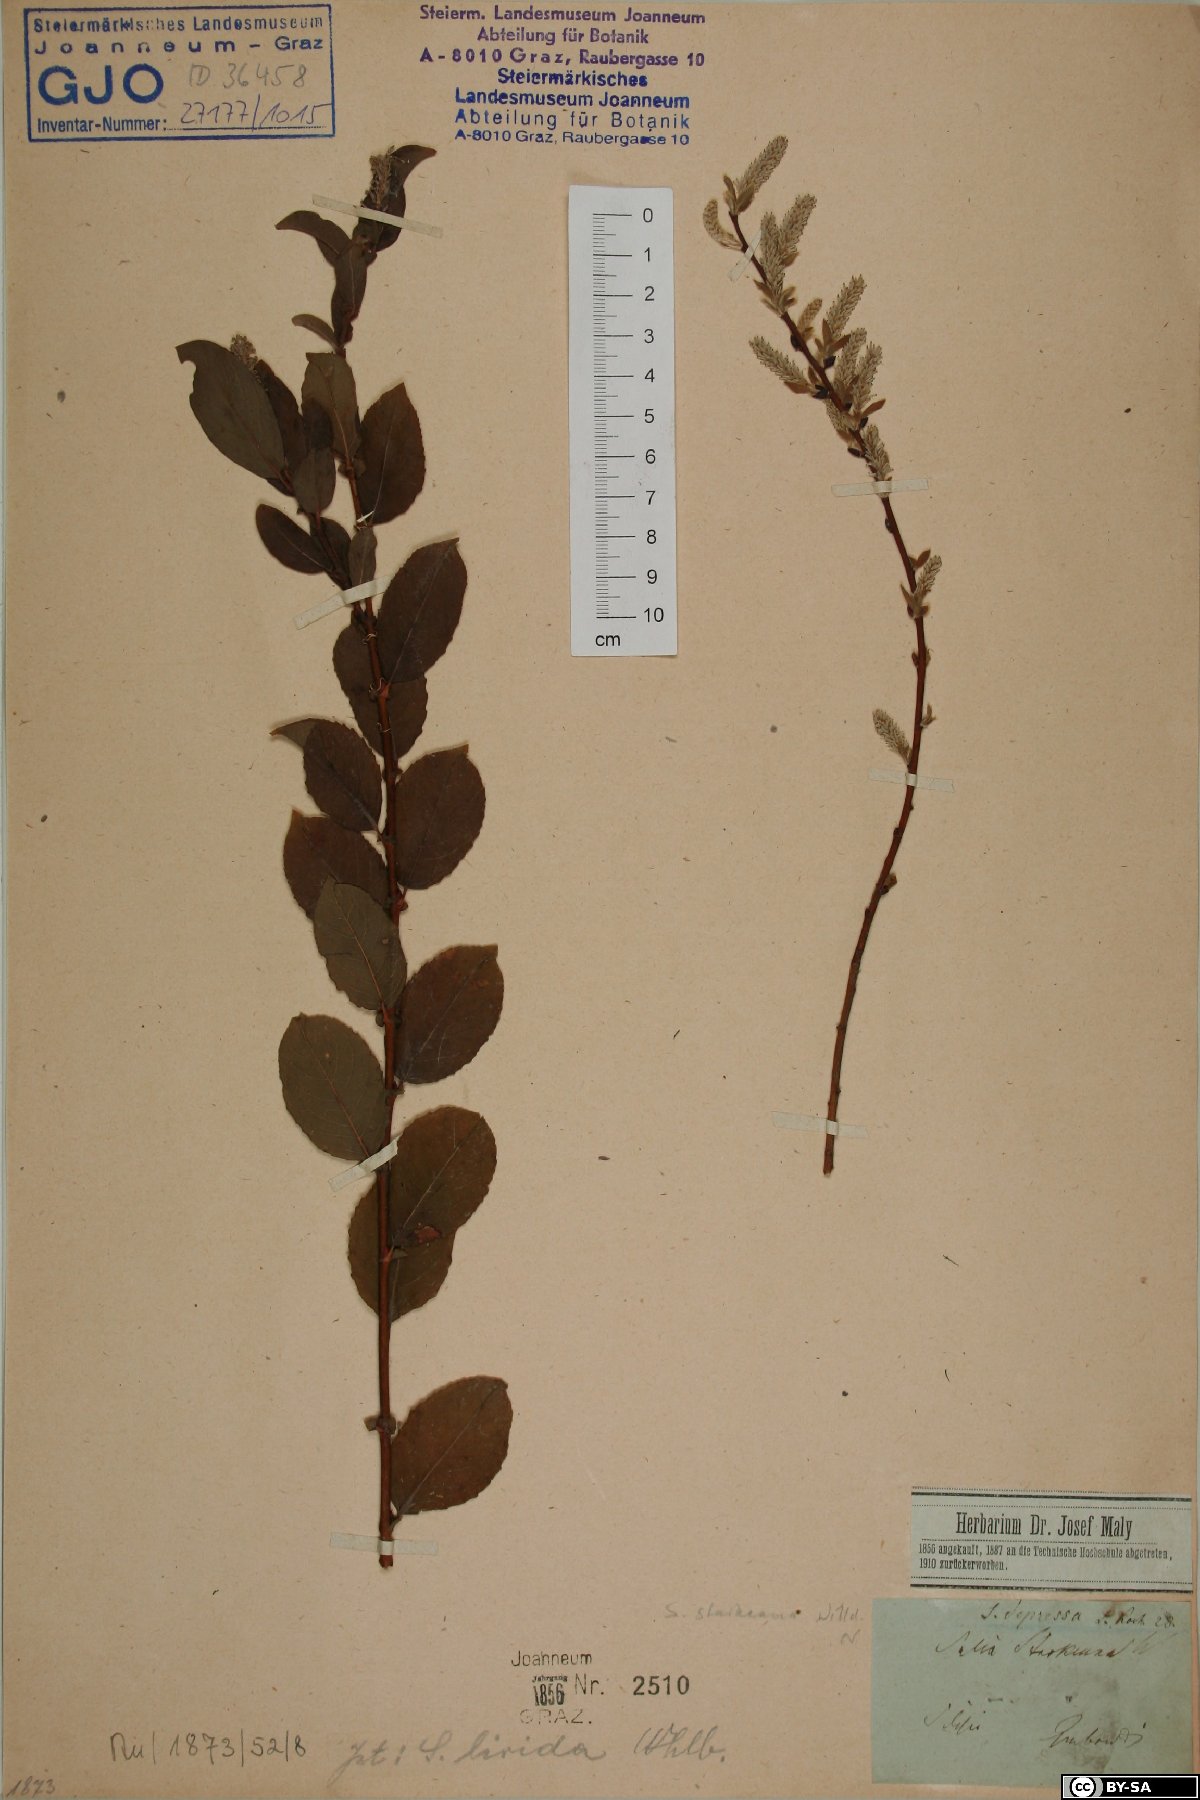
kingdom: Plantae
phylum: Tracheophyta
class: Magnoliopsida
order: Malpighiales
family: Salicaceae
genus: Salix
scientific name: Salix starkeana
